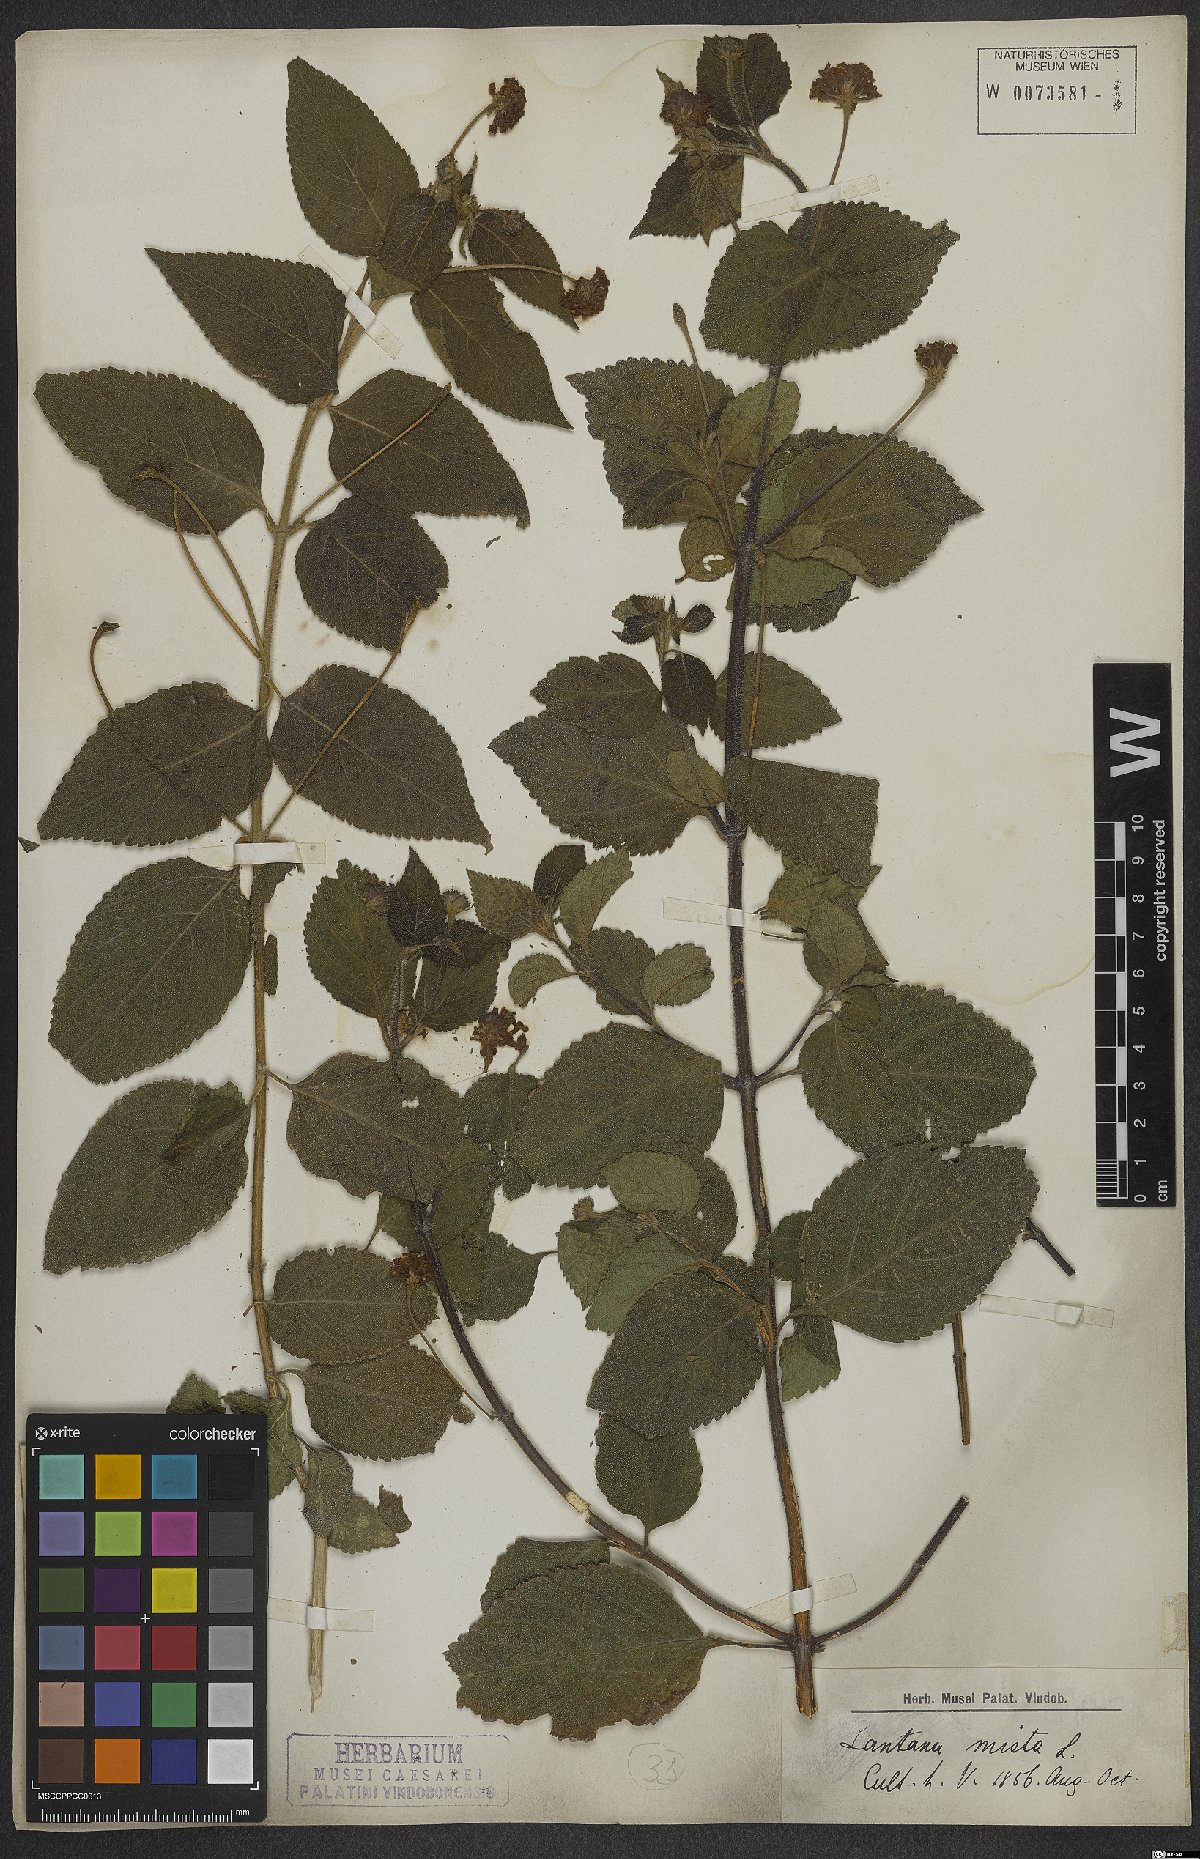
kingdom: Plantae
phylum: Tracheophyta
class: Magnoliopsida
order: Lamiales
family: Verbenaceae
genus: Lantana
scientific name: Lantana mista
